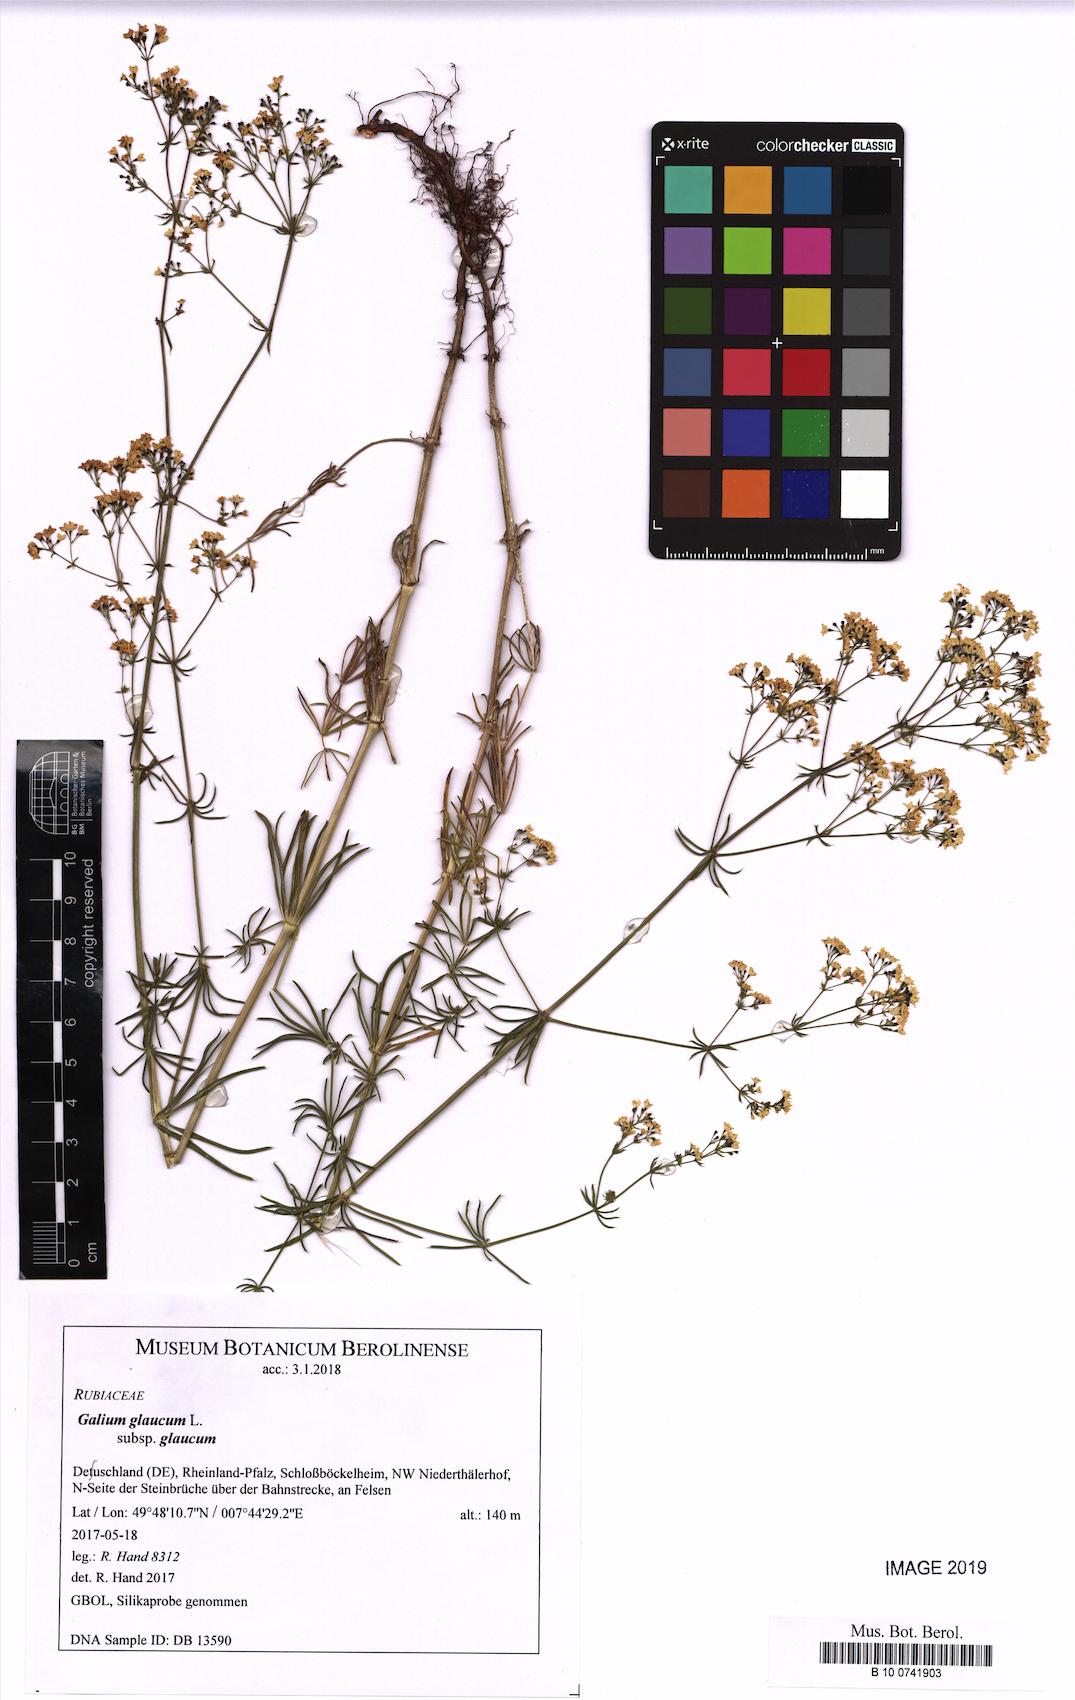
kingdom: Plantae
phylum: Tracheophyta
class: Magnoliopsida
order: Gentianales
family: Rubiaceae
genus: Galium
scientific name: Galium glaucum
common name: Waxy bedstraw
